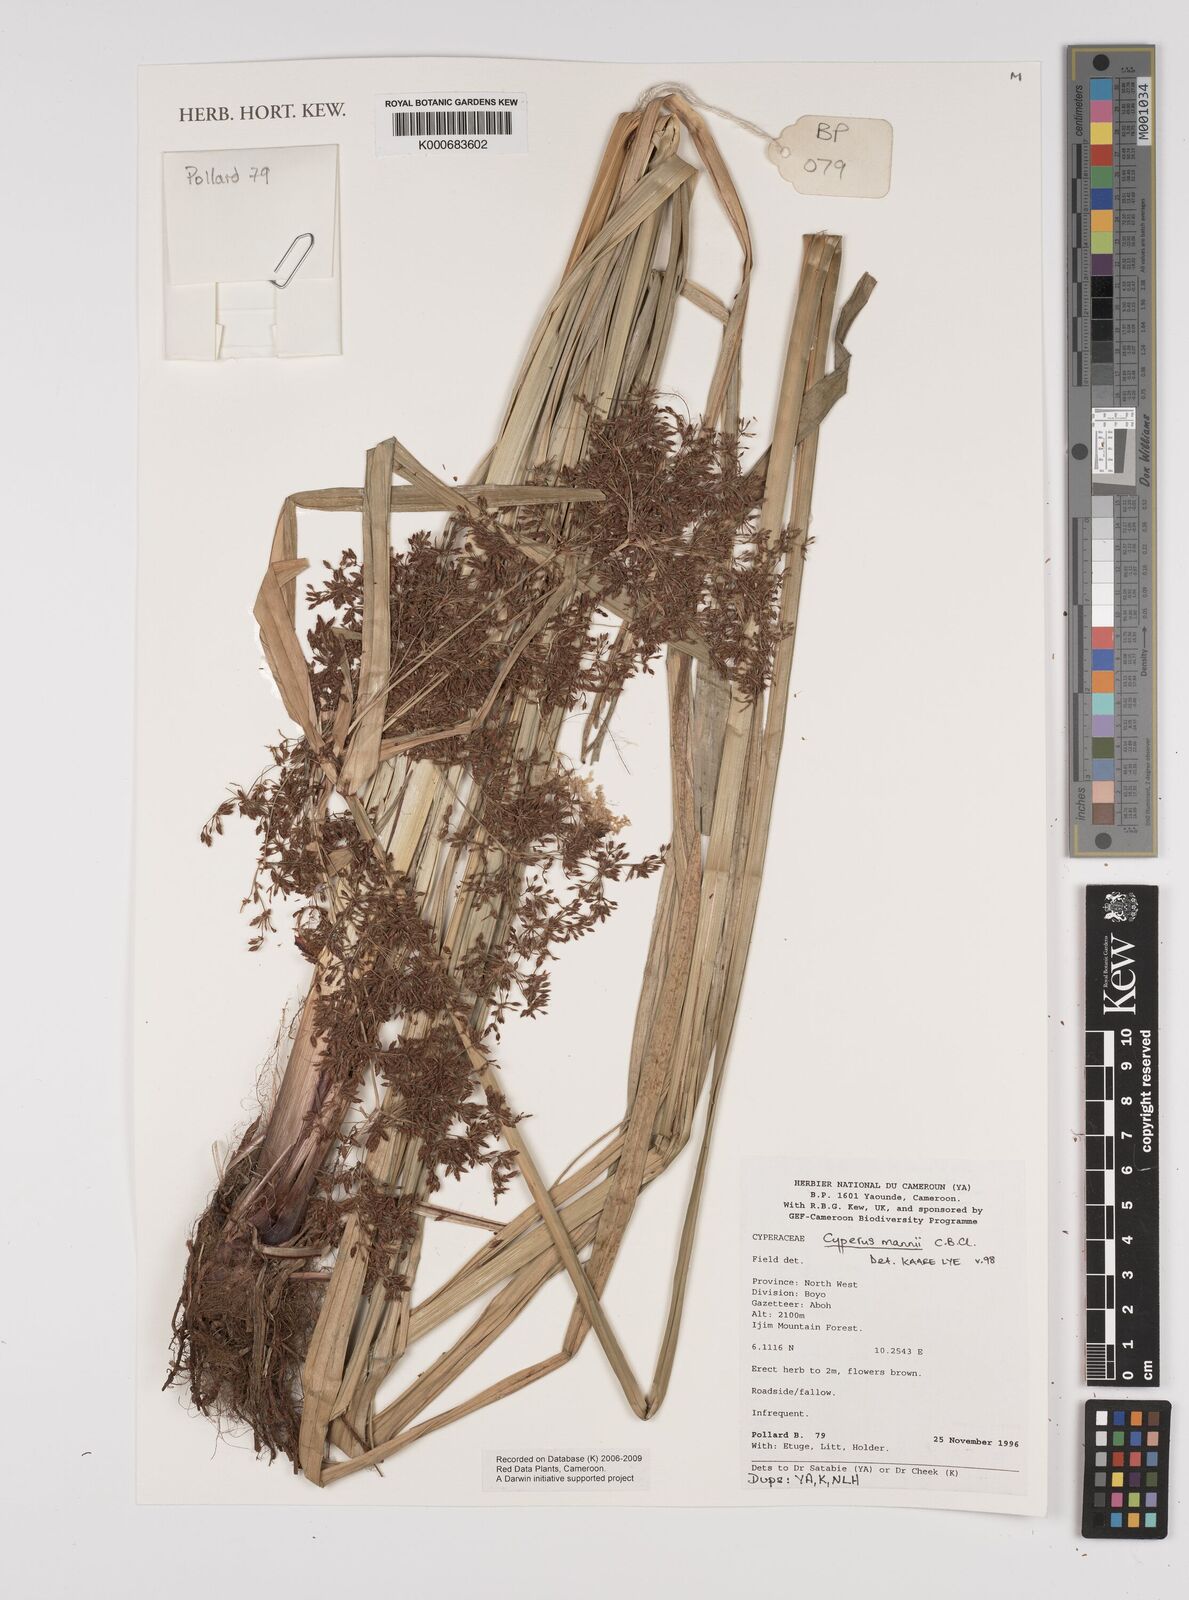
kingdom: Plantae
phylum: Tracheophyta
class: Liliopsida
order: Poales
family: Cyperaceae
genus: Cyperus
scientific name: Cyperus baronii
